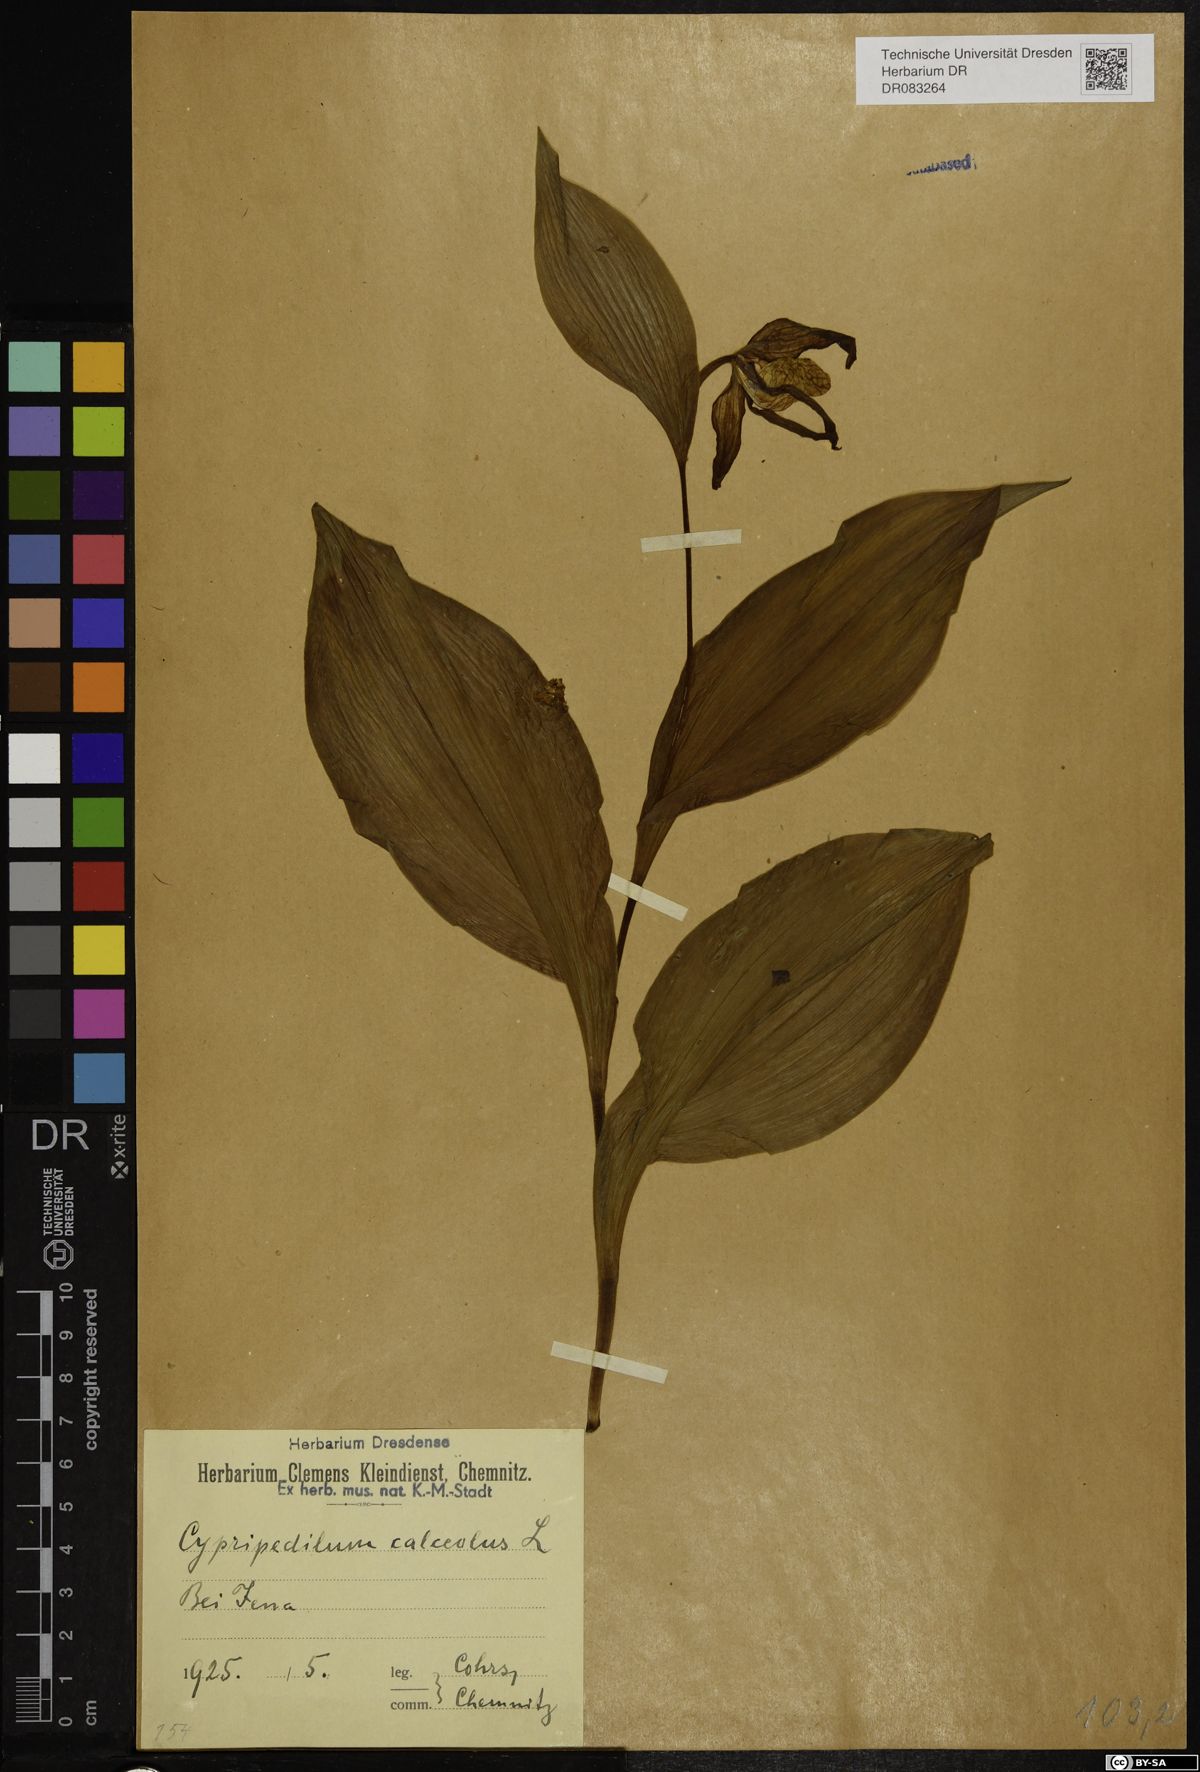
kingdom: Plantae
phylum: Tracheophyta
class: Liliopsida
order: Asparagales
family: Orchidaceae
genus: Cypripedium
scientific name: Cypripedium calceolus
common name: Lady's-slipper
